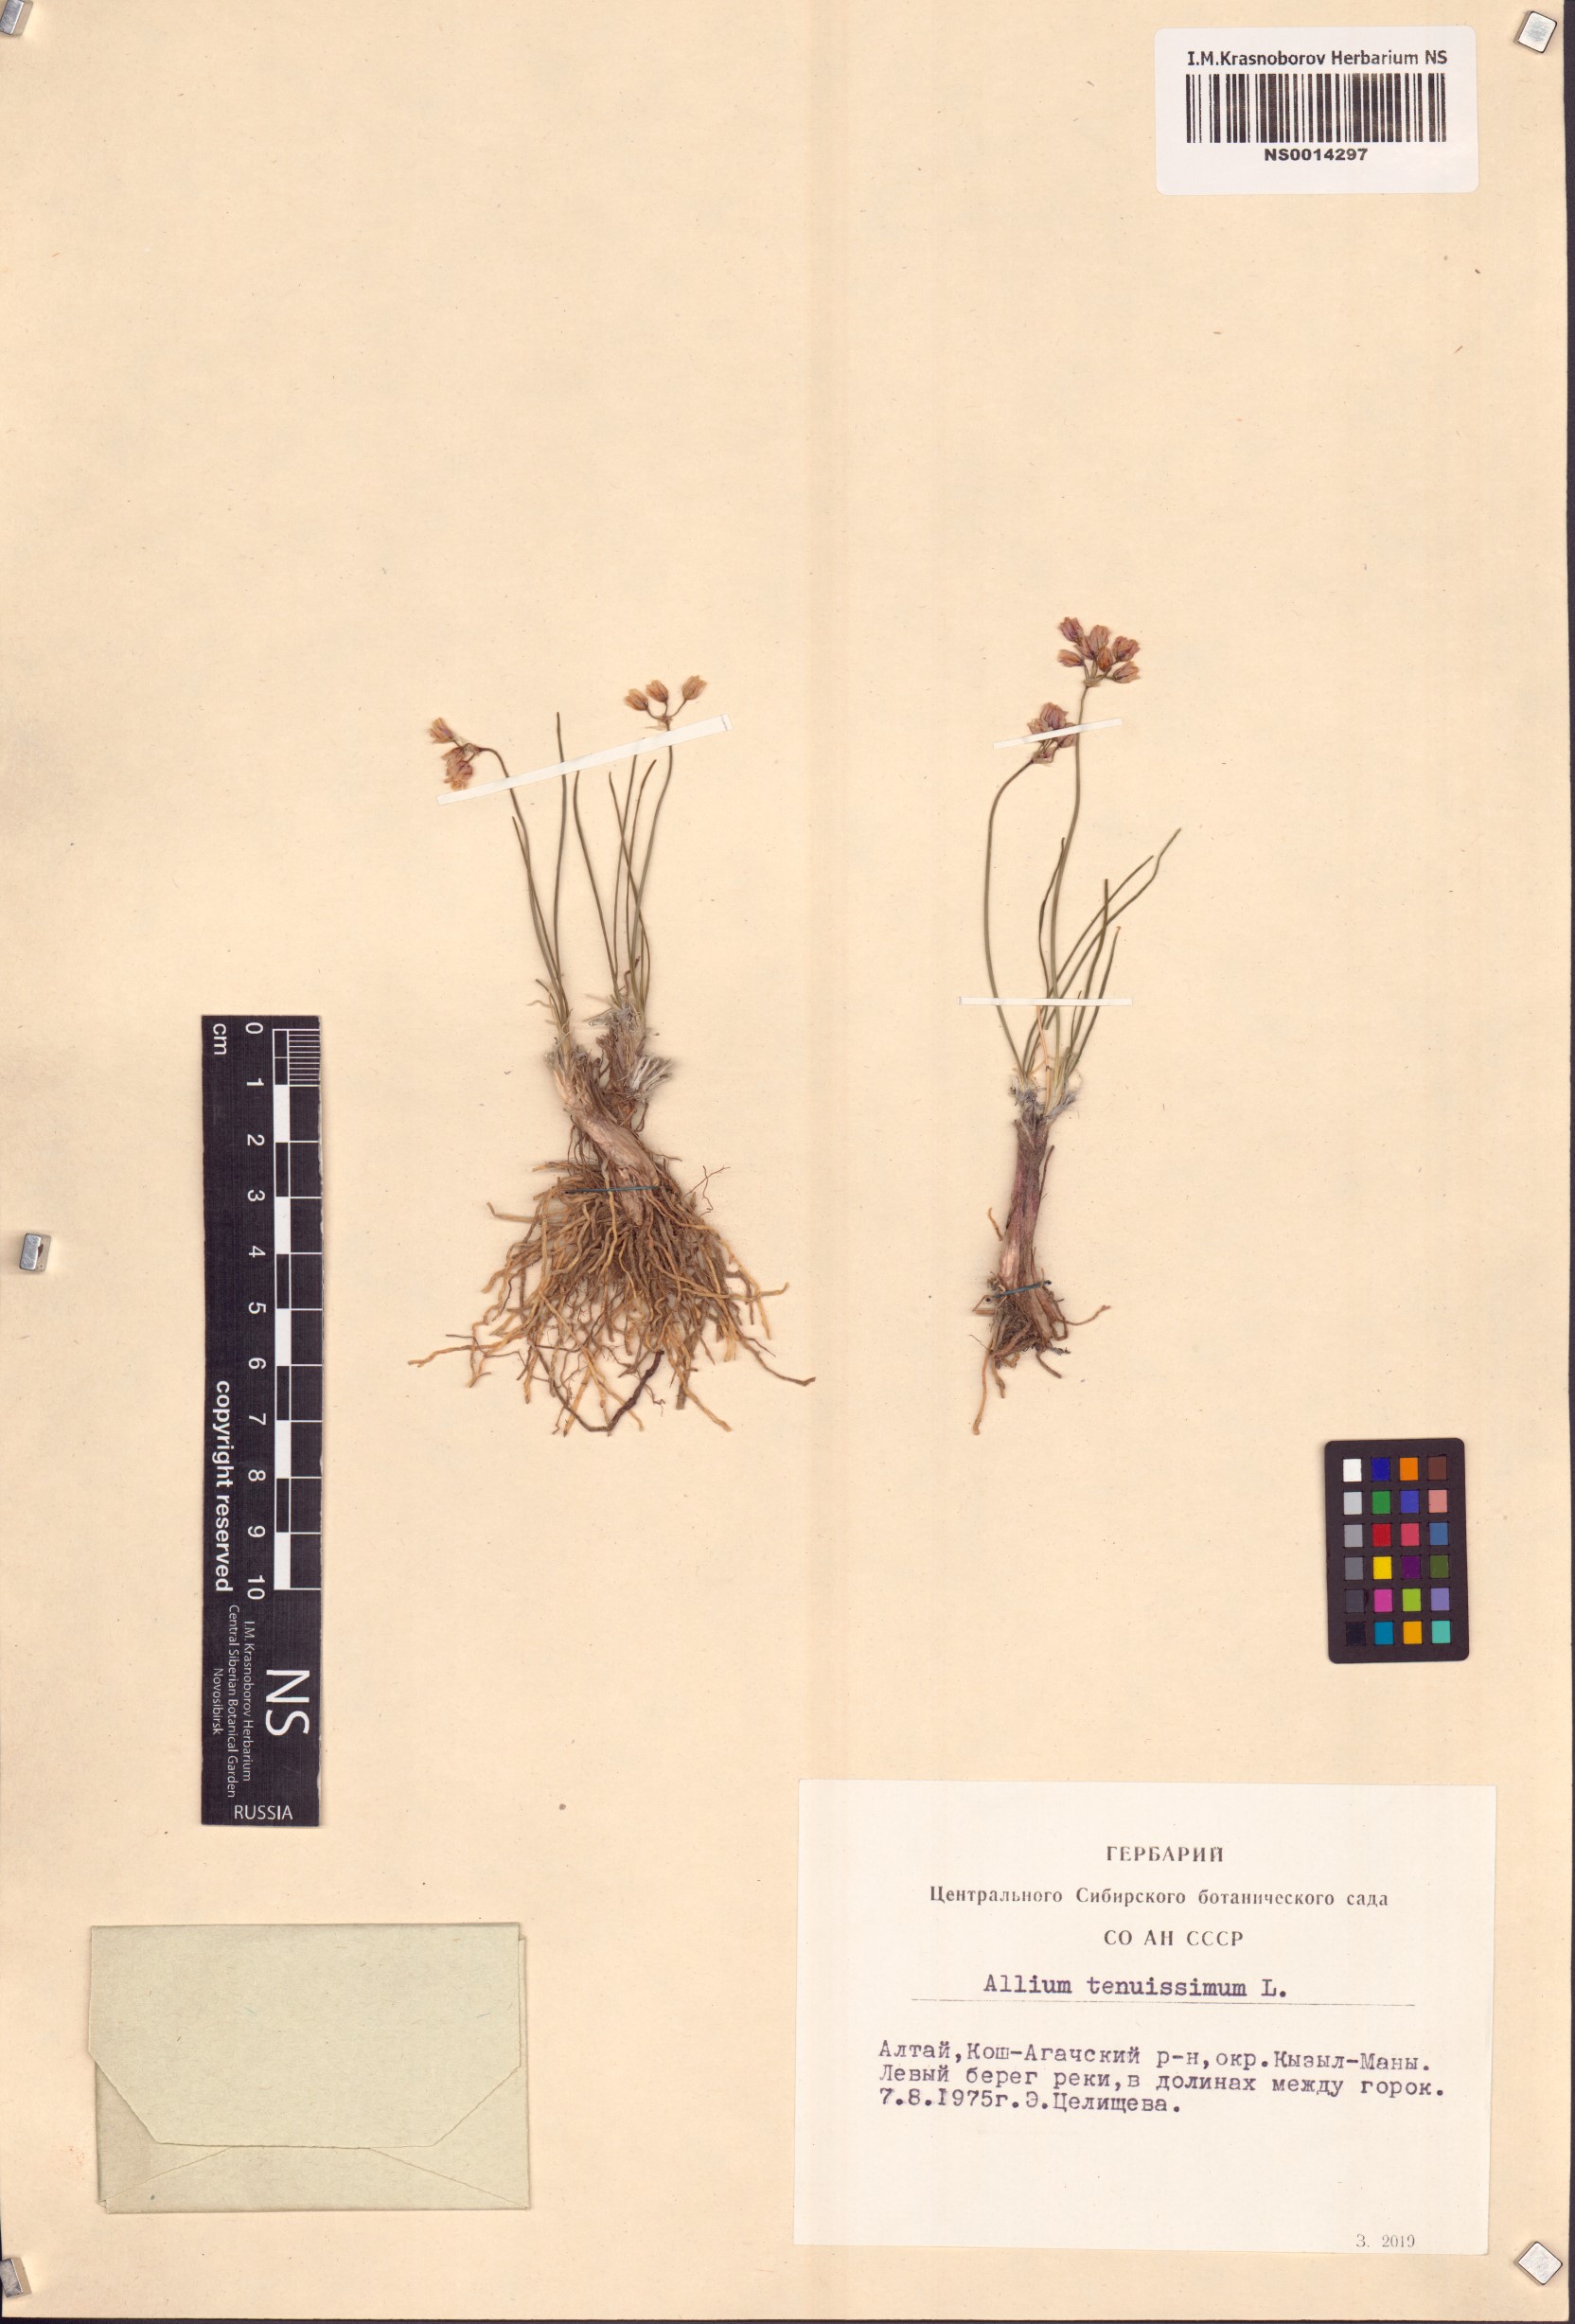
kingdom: Plantae
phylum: Tracheophyta
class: Liliopsida
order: Asparagales
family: Amaryllidaceae
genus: Allium
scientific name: Allium tenuissimum
